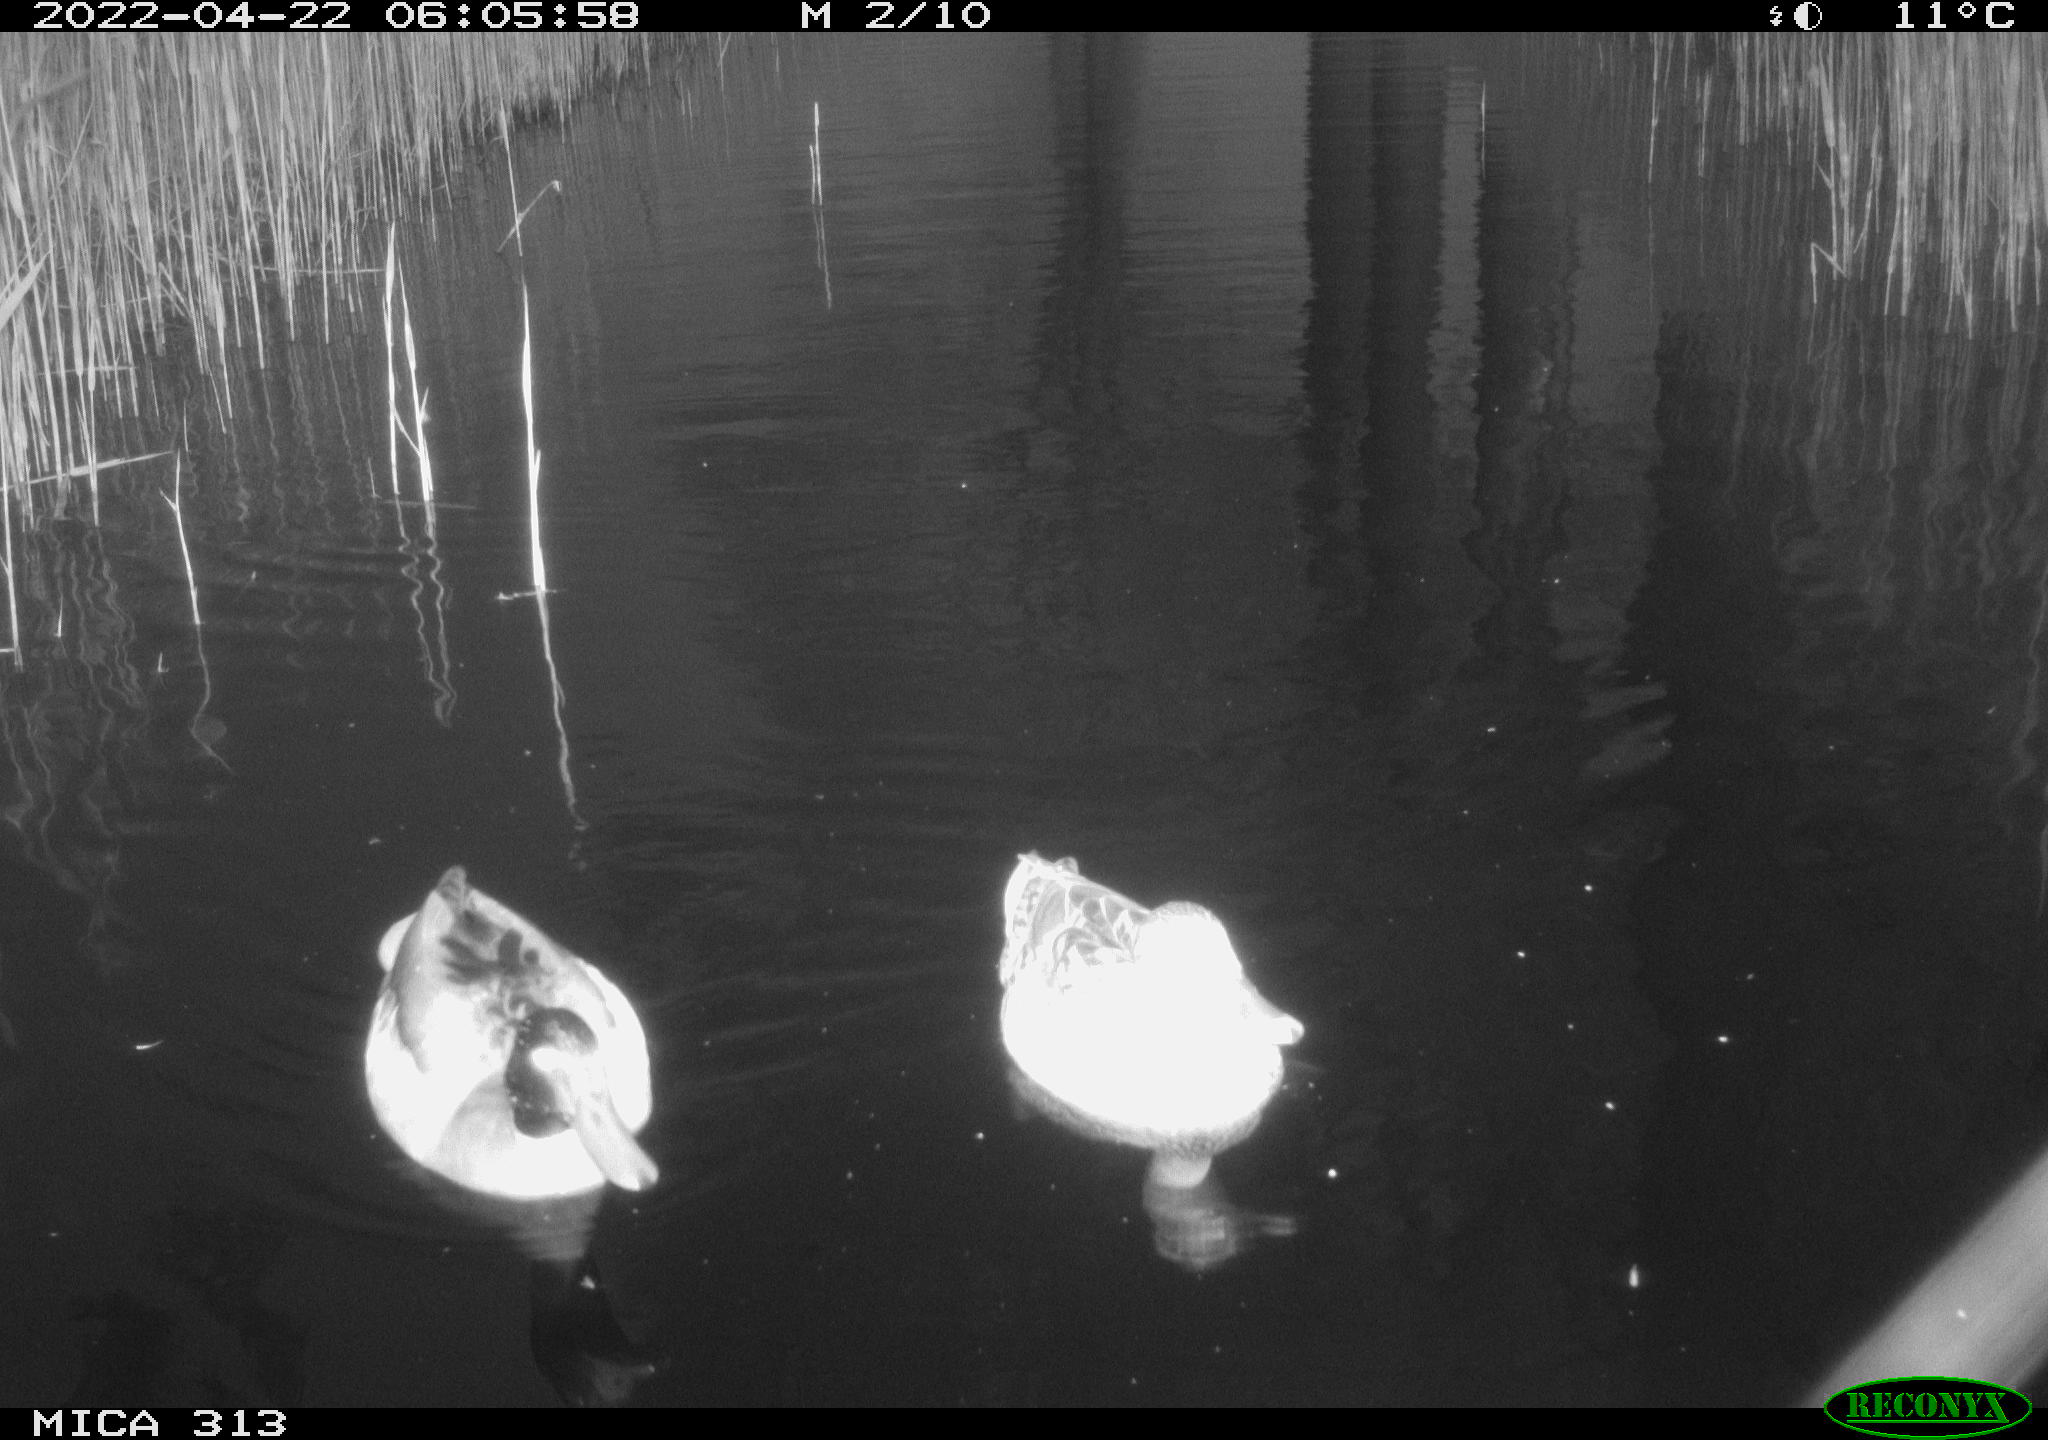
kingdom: Animalia
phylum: Chordata
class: Aves
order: Anseriformes
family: Anatidae
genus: Anas
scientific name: Anas platyrhynchos
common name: Mallard
